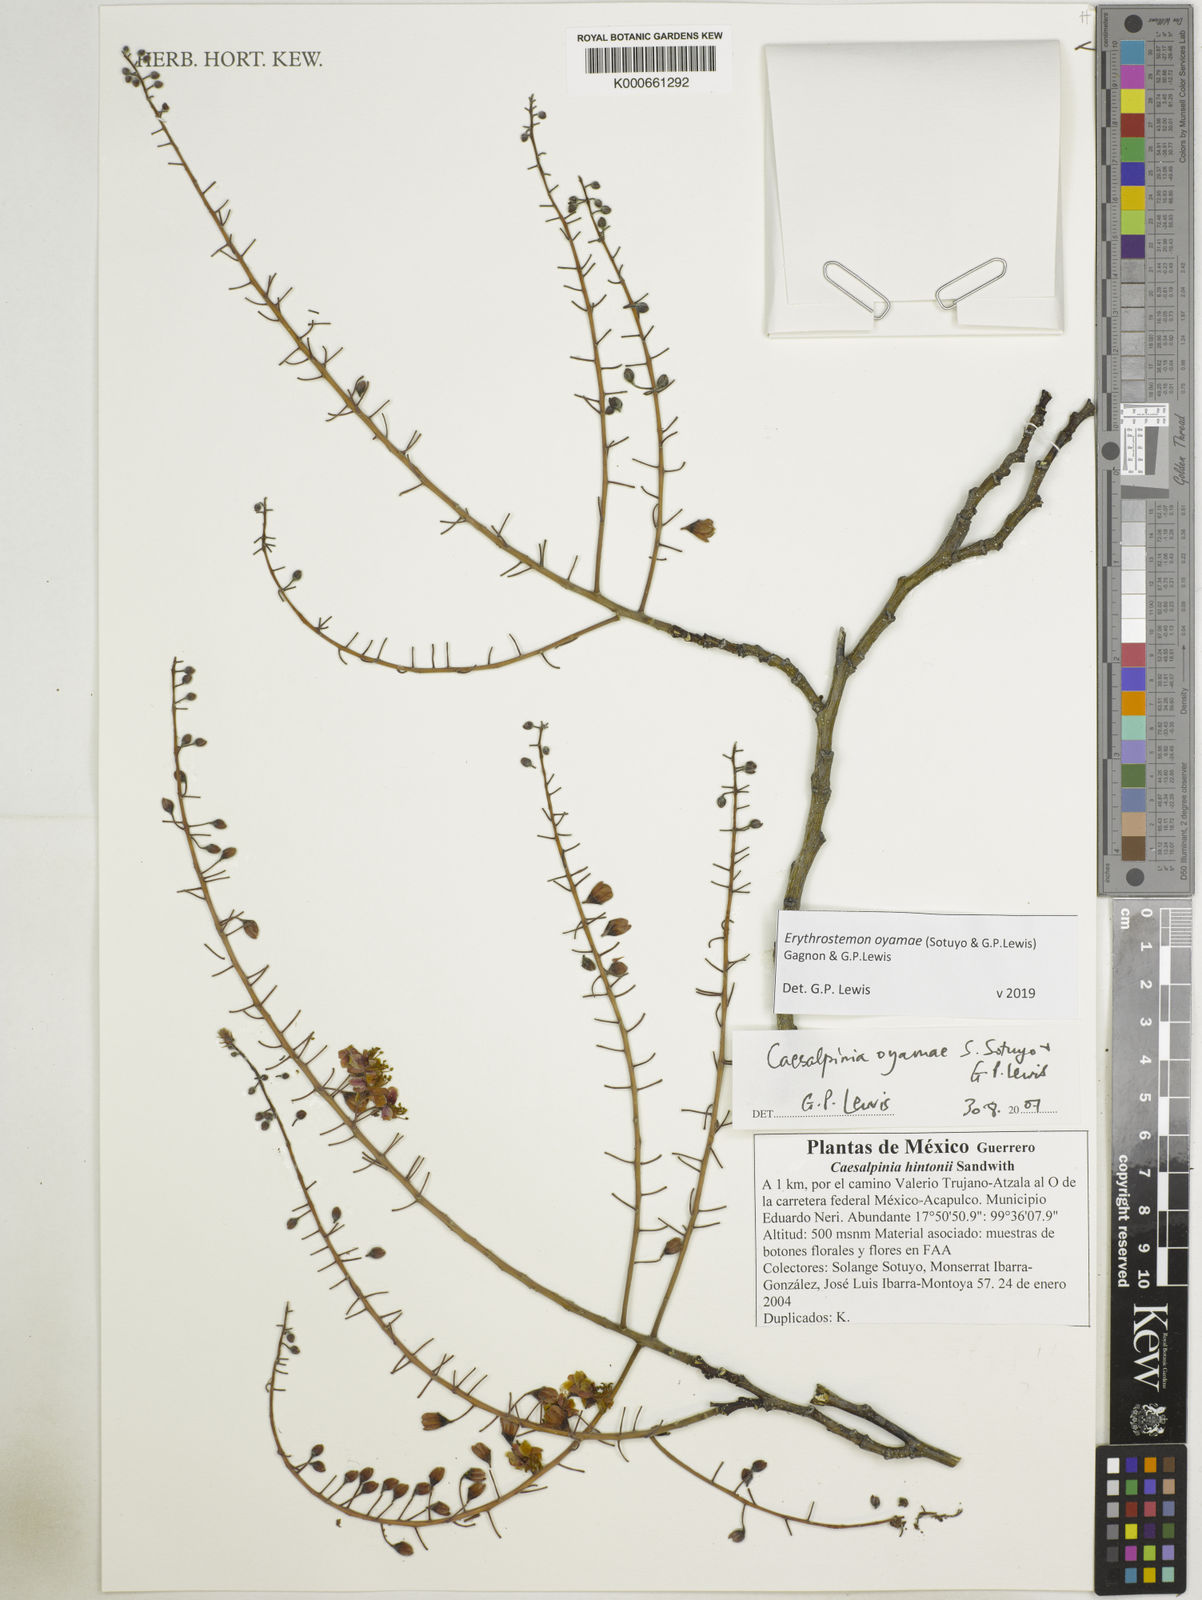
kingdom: Plantae
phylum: Tracheophyta
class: Magnoliopsida
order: Fabales
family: Fabaceae
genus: Erythrostemon
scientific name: Erythrostemon oyamae
